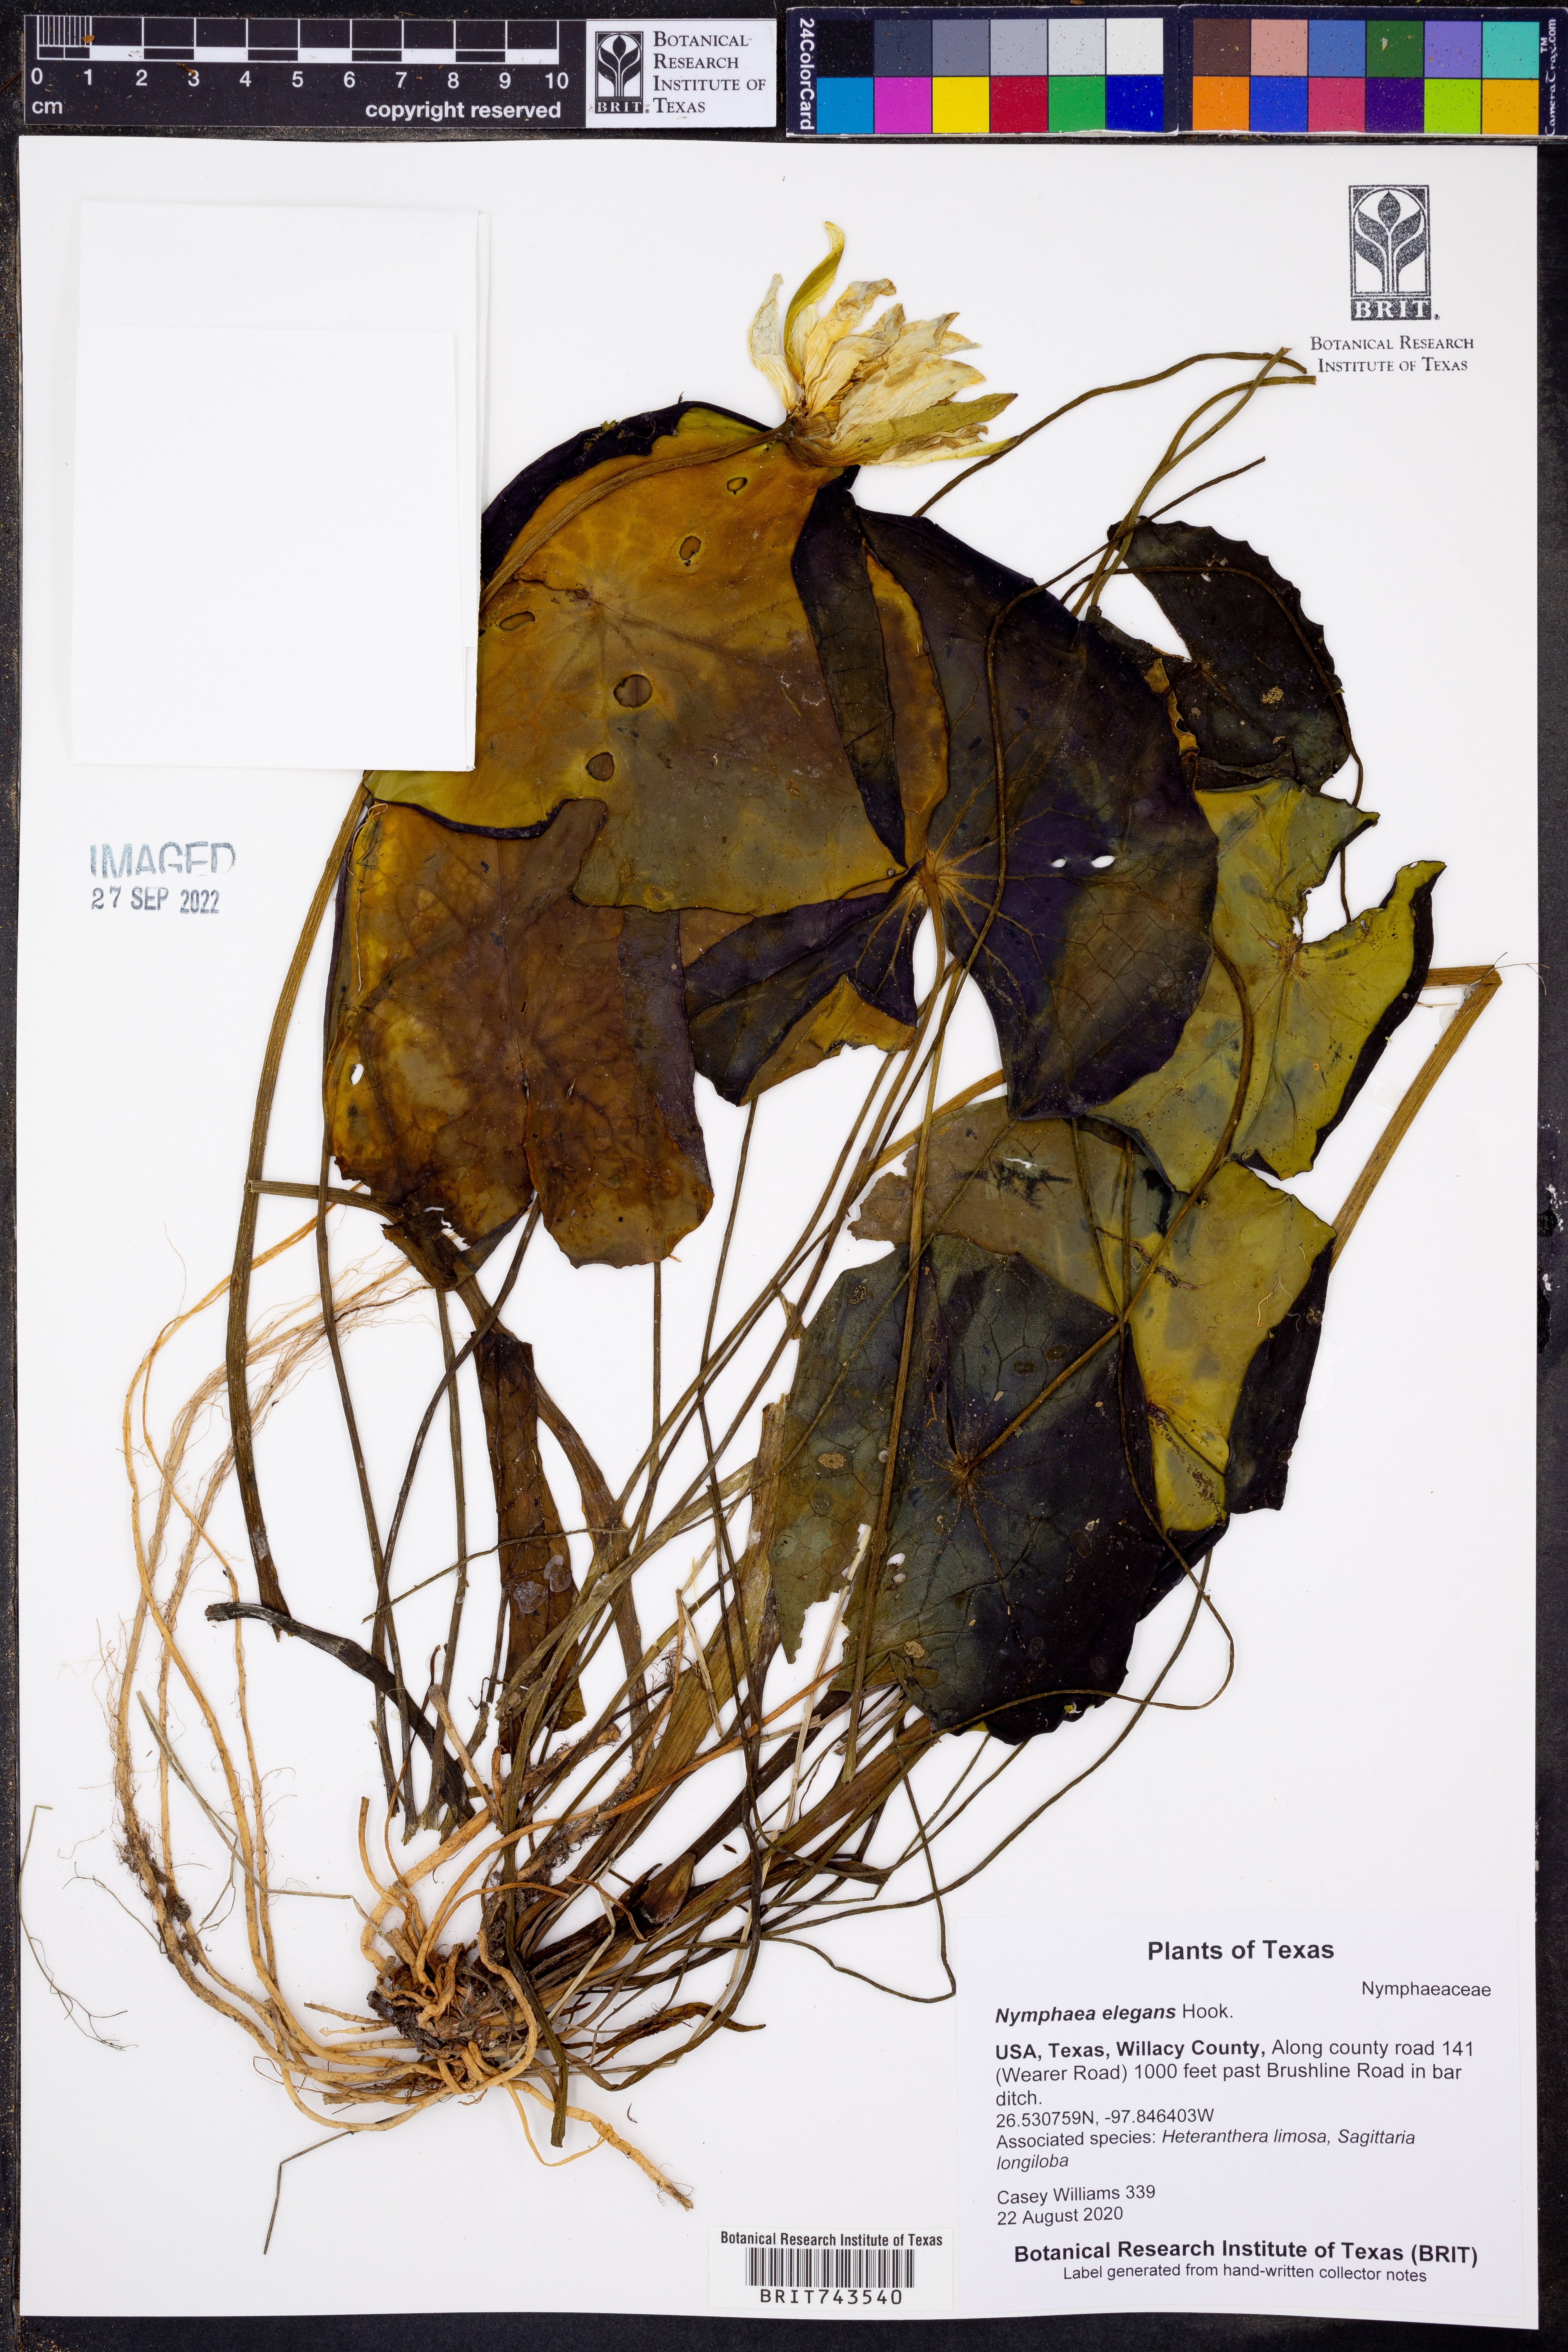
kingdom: Plantae
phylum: Tracheophyta
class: Magnoliopsida
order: Nymphaeales
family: Nymphaeaceae
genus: Nymphaea
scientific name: Nymphaea elegans
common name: Blue water-lily
